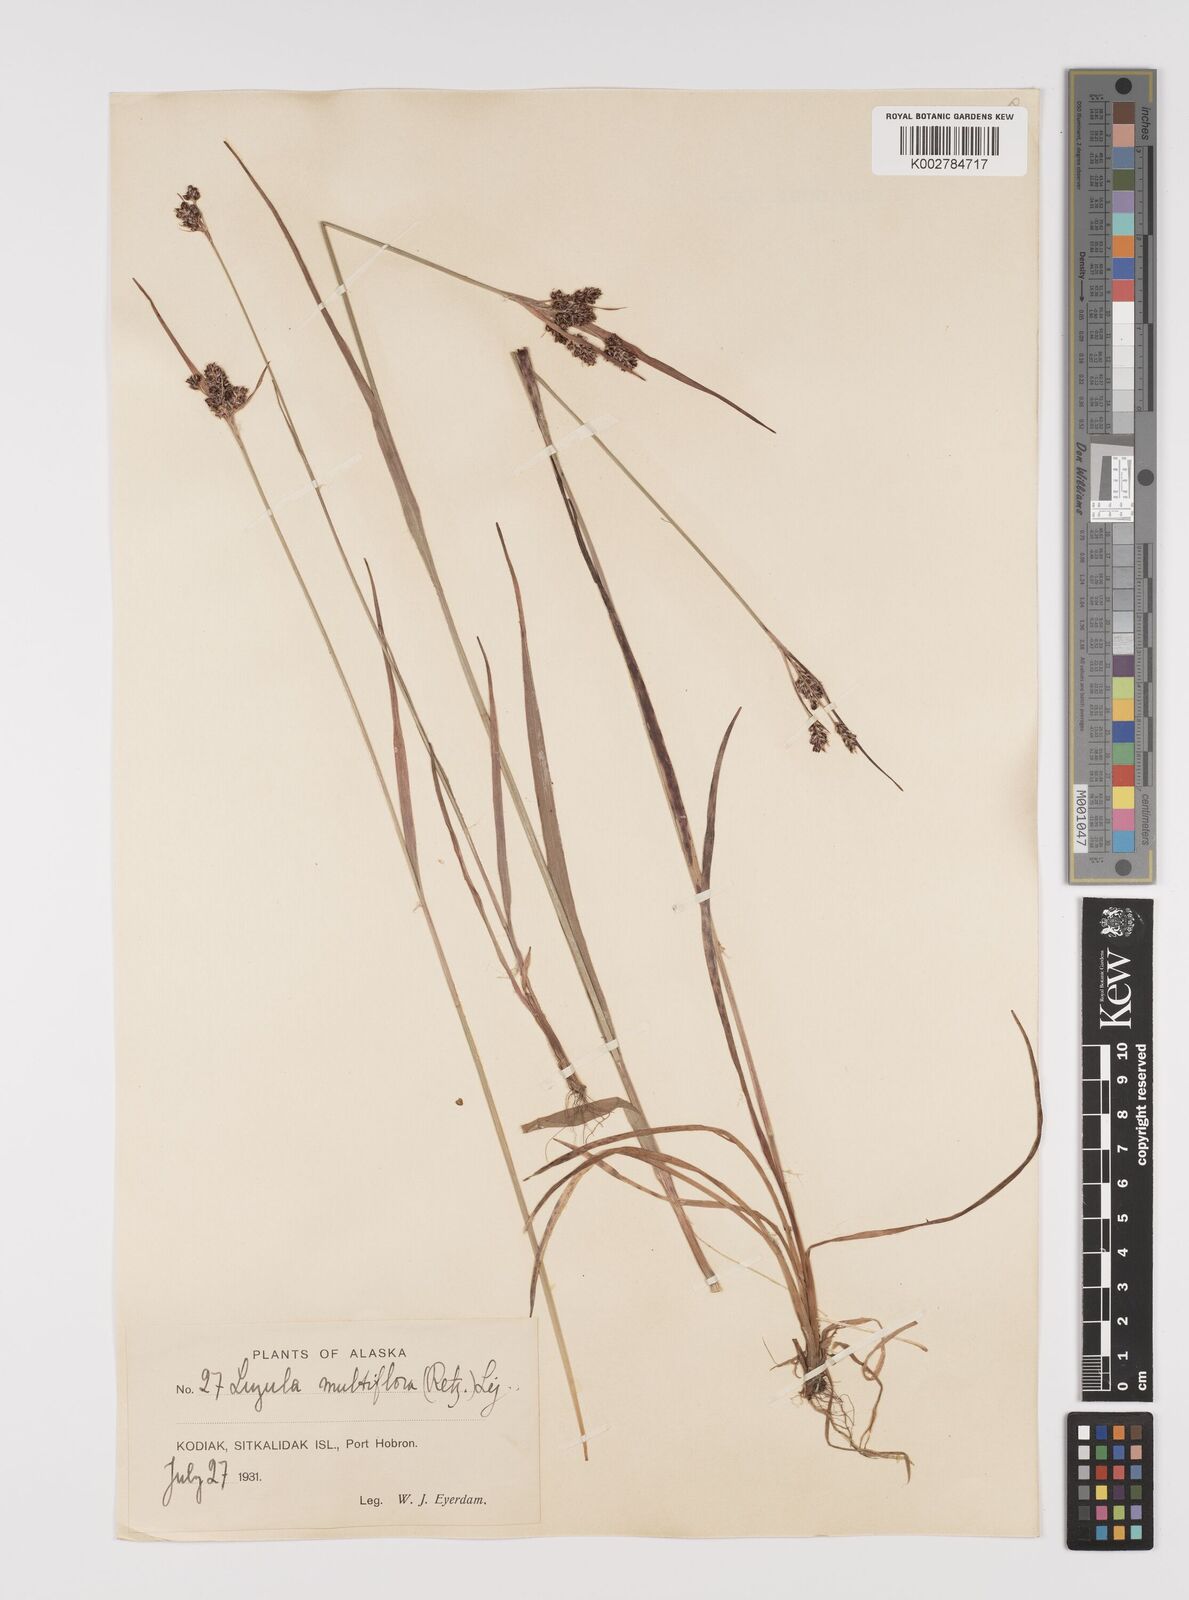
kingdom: Plantae
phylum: Tracheophyta
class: Liliopsida
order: Poales
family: Juncaceae
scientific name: Juncaceae
